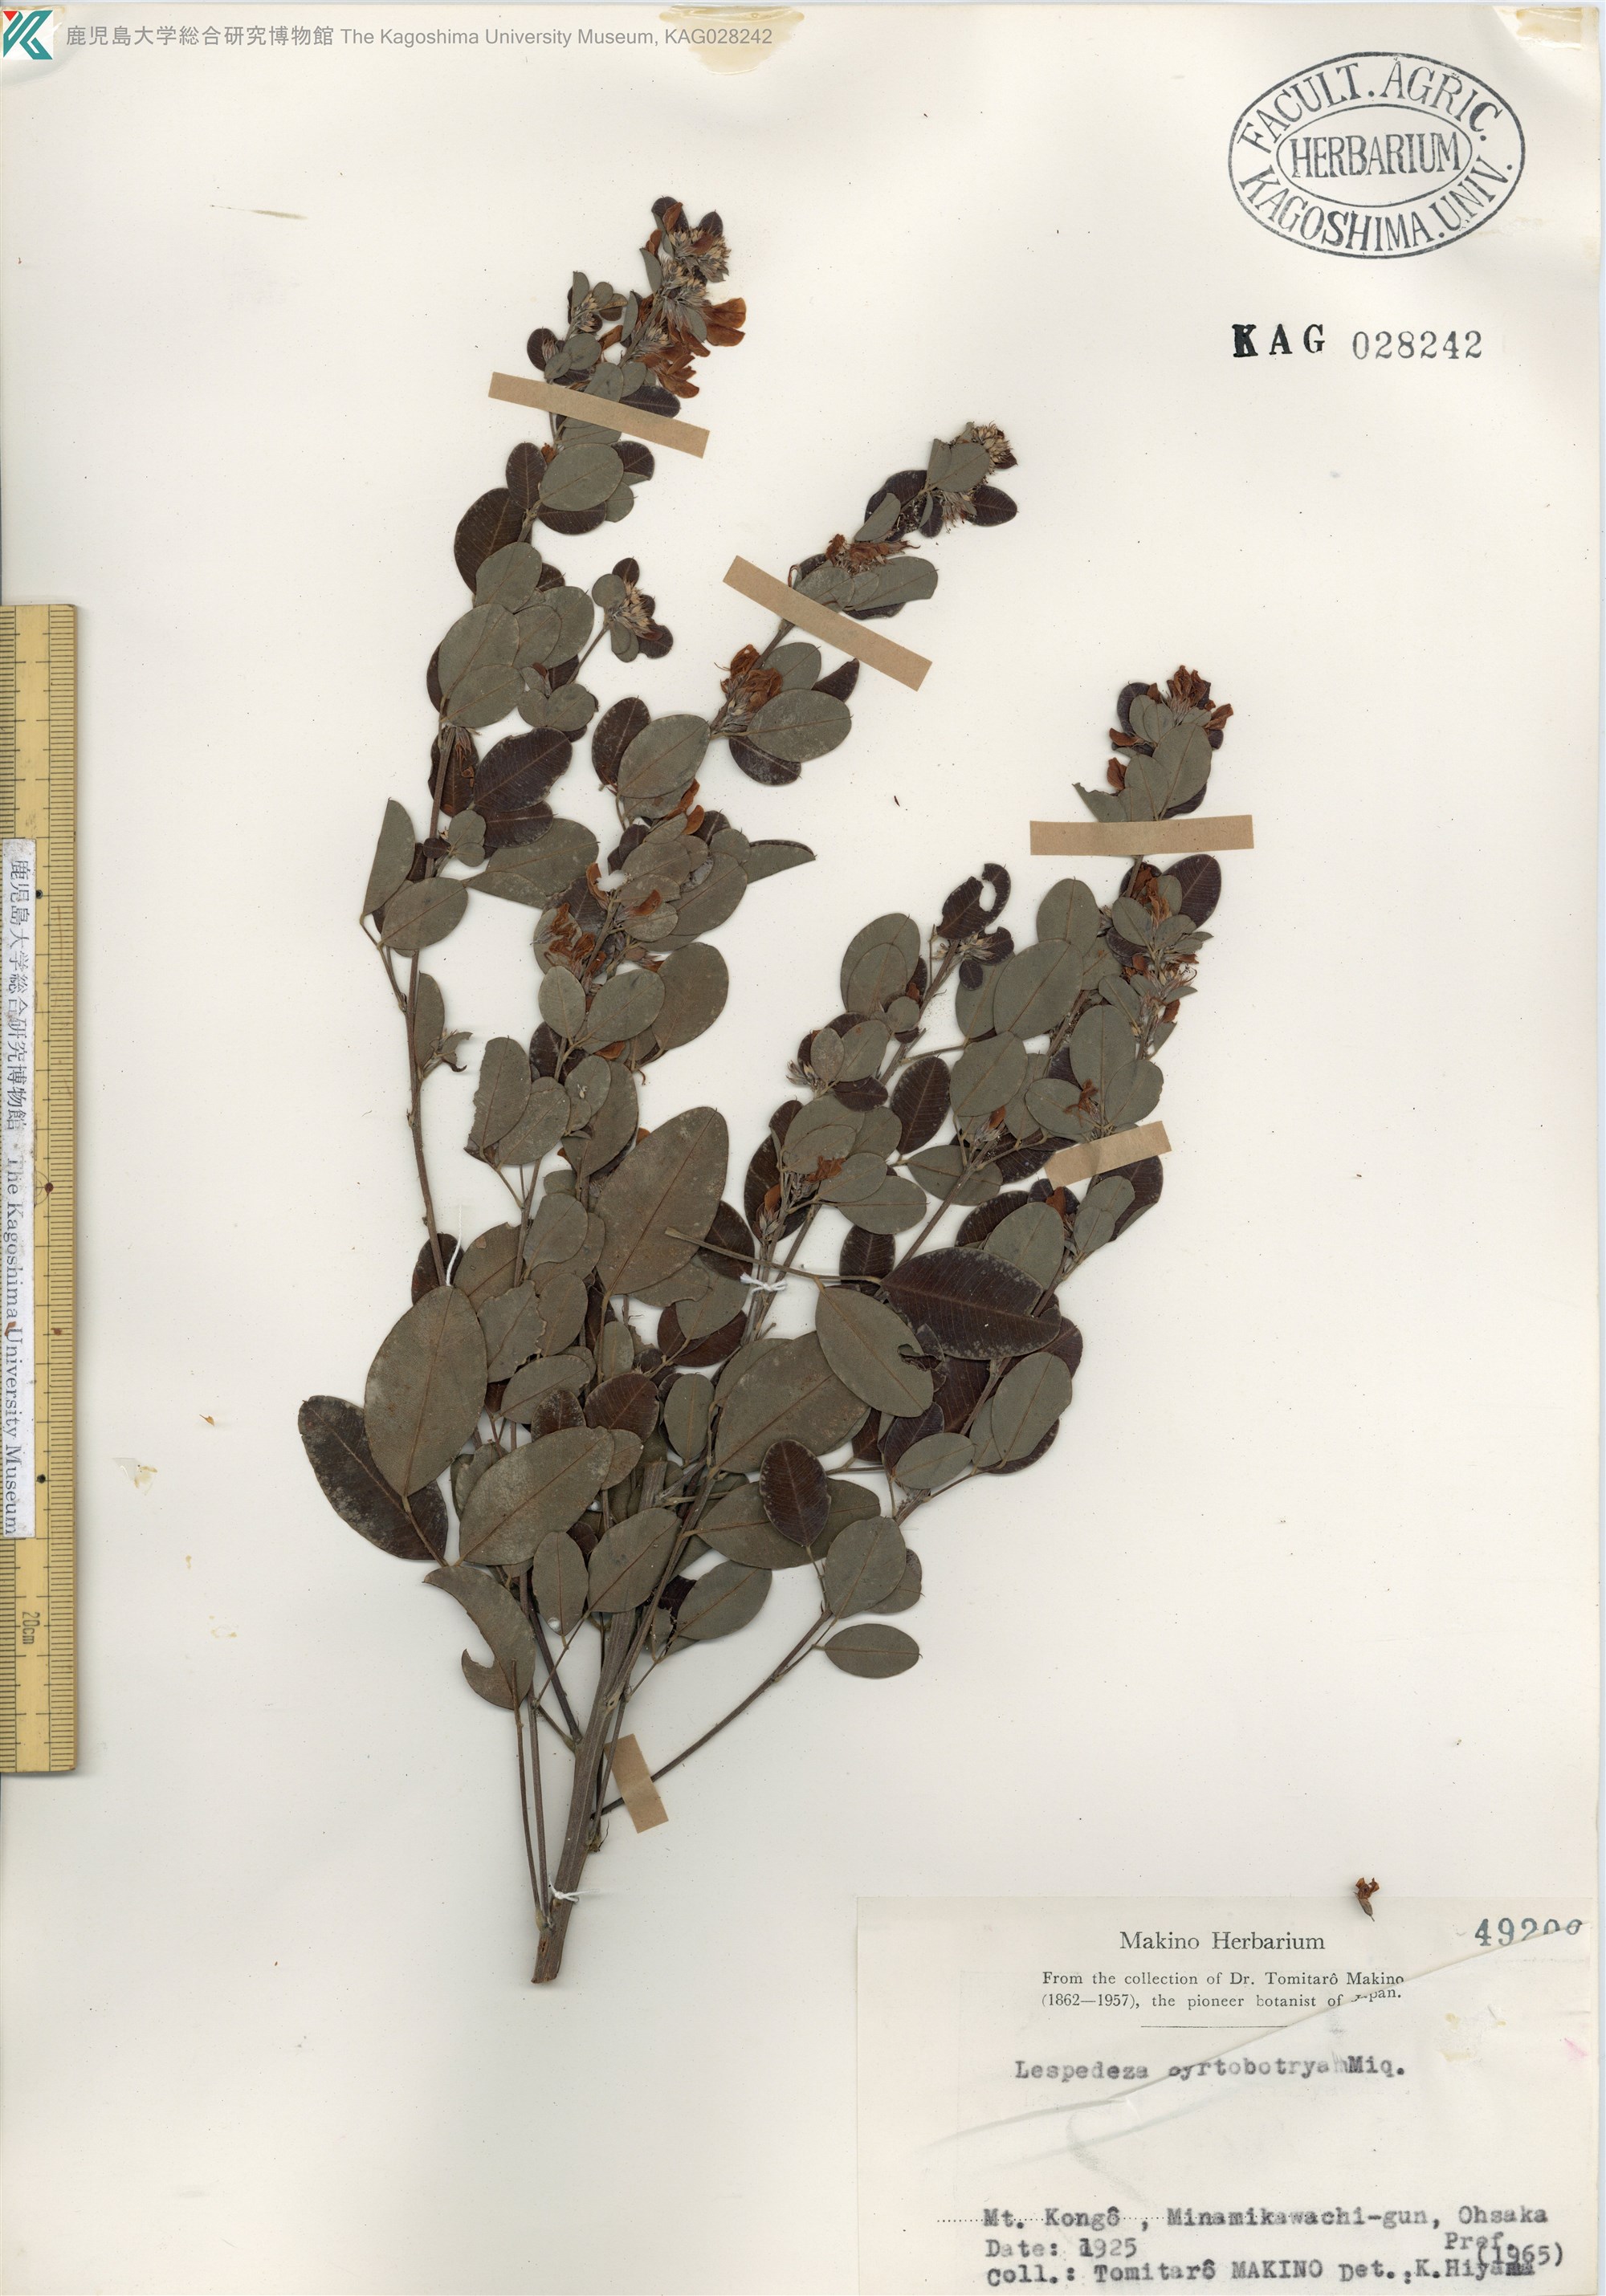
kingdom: Plantae
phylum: Tracheophyta
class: Magnoliopsida
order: Fabales
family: Fabaceae
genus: Lespedeza
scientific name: Lespedeza cyrtobotrya
